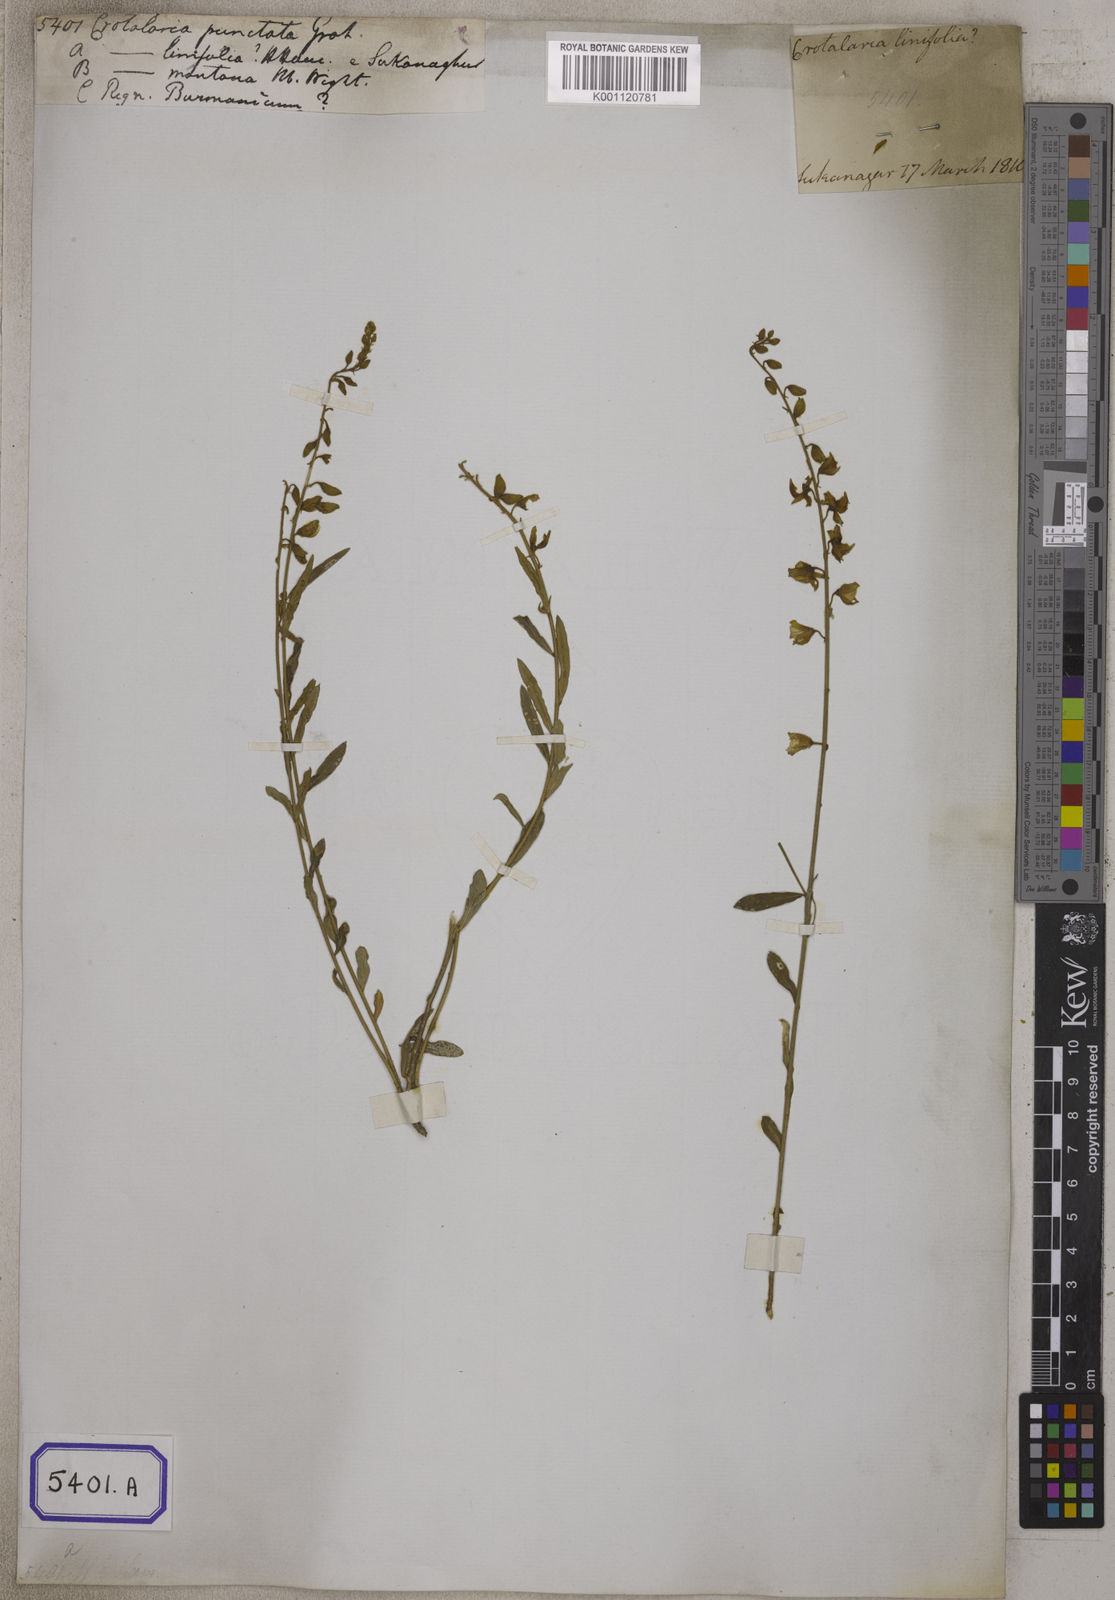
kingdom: Plantae
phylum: Tracheophyta
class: Magnoliopsida
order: Fabales
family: Fabaceae
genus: Crotalaria
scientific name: Crotalaria albida
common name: Taiwan crotalaria
